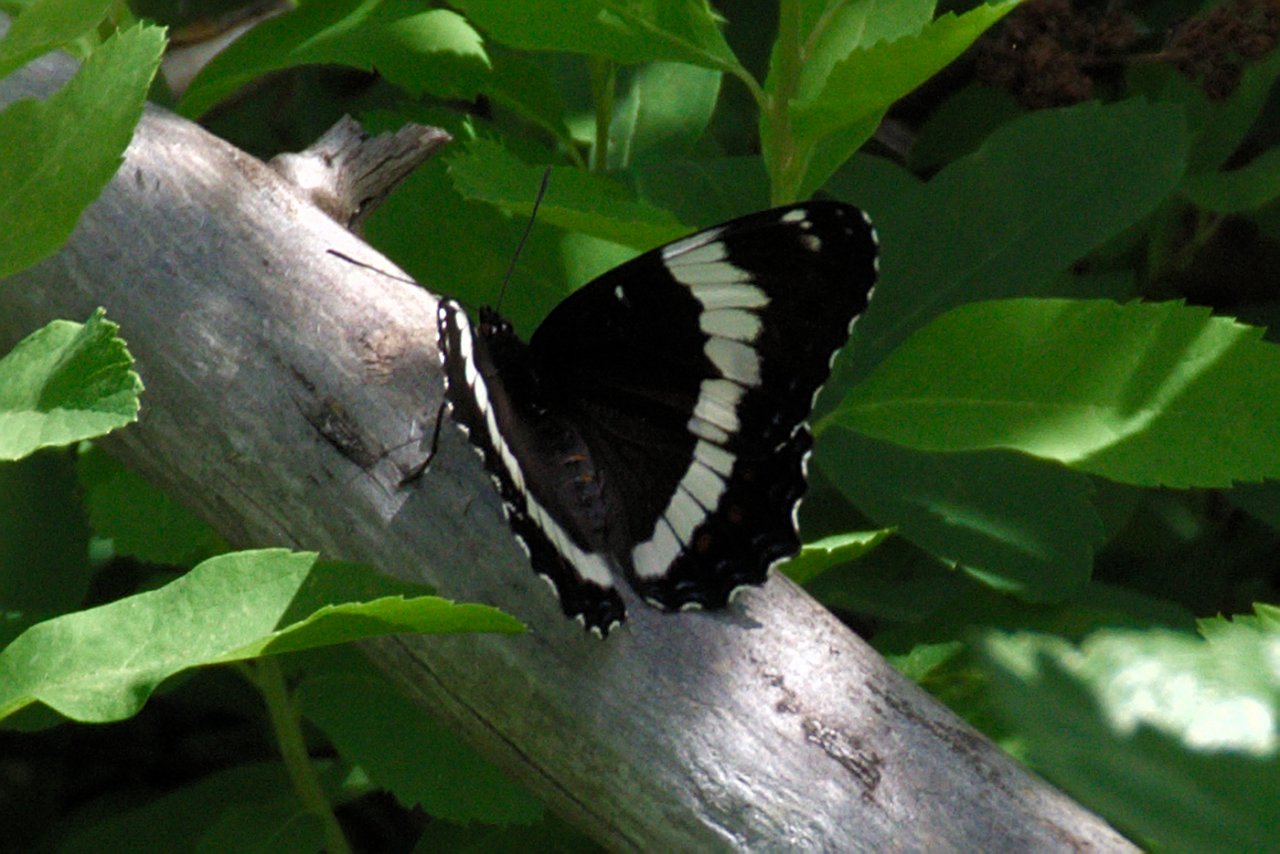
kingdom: Animalia
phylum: Arthropoda
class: Insecta
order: Lepidoptera
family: Nymphalidae
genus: Limenitis
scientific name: Limenitis arthemis
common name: Red-spotted Admiral
